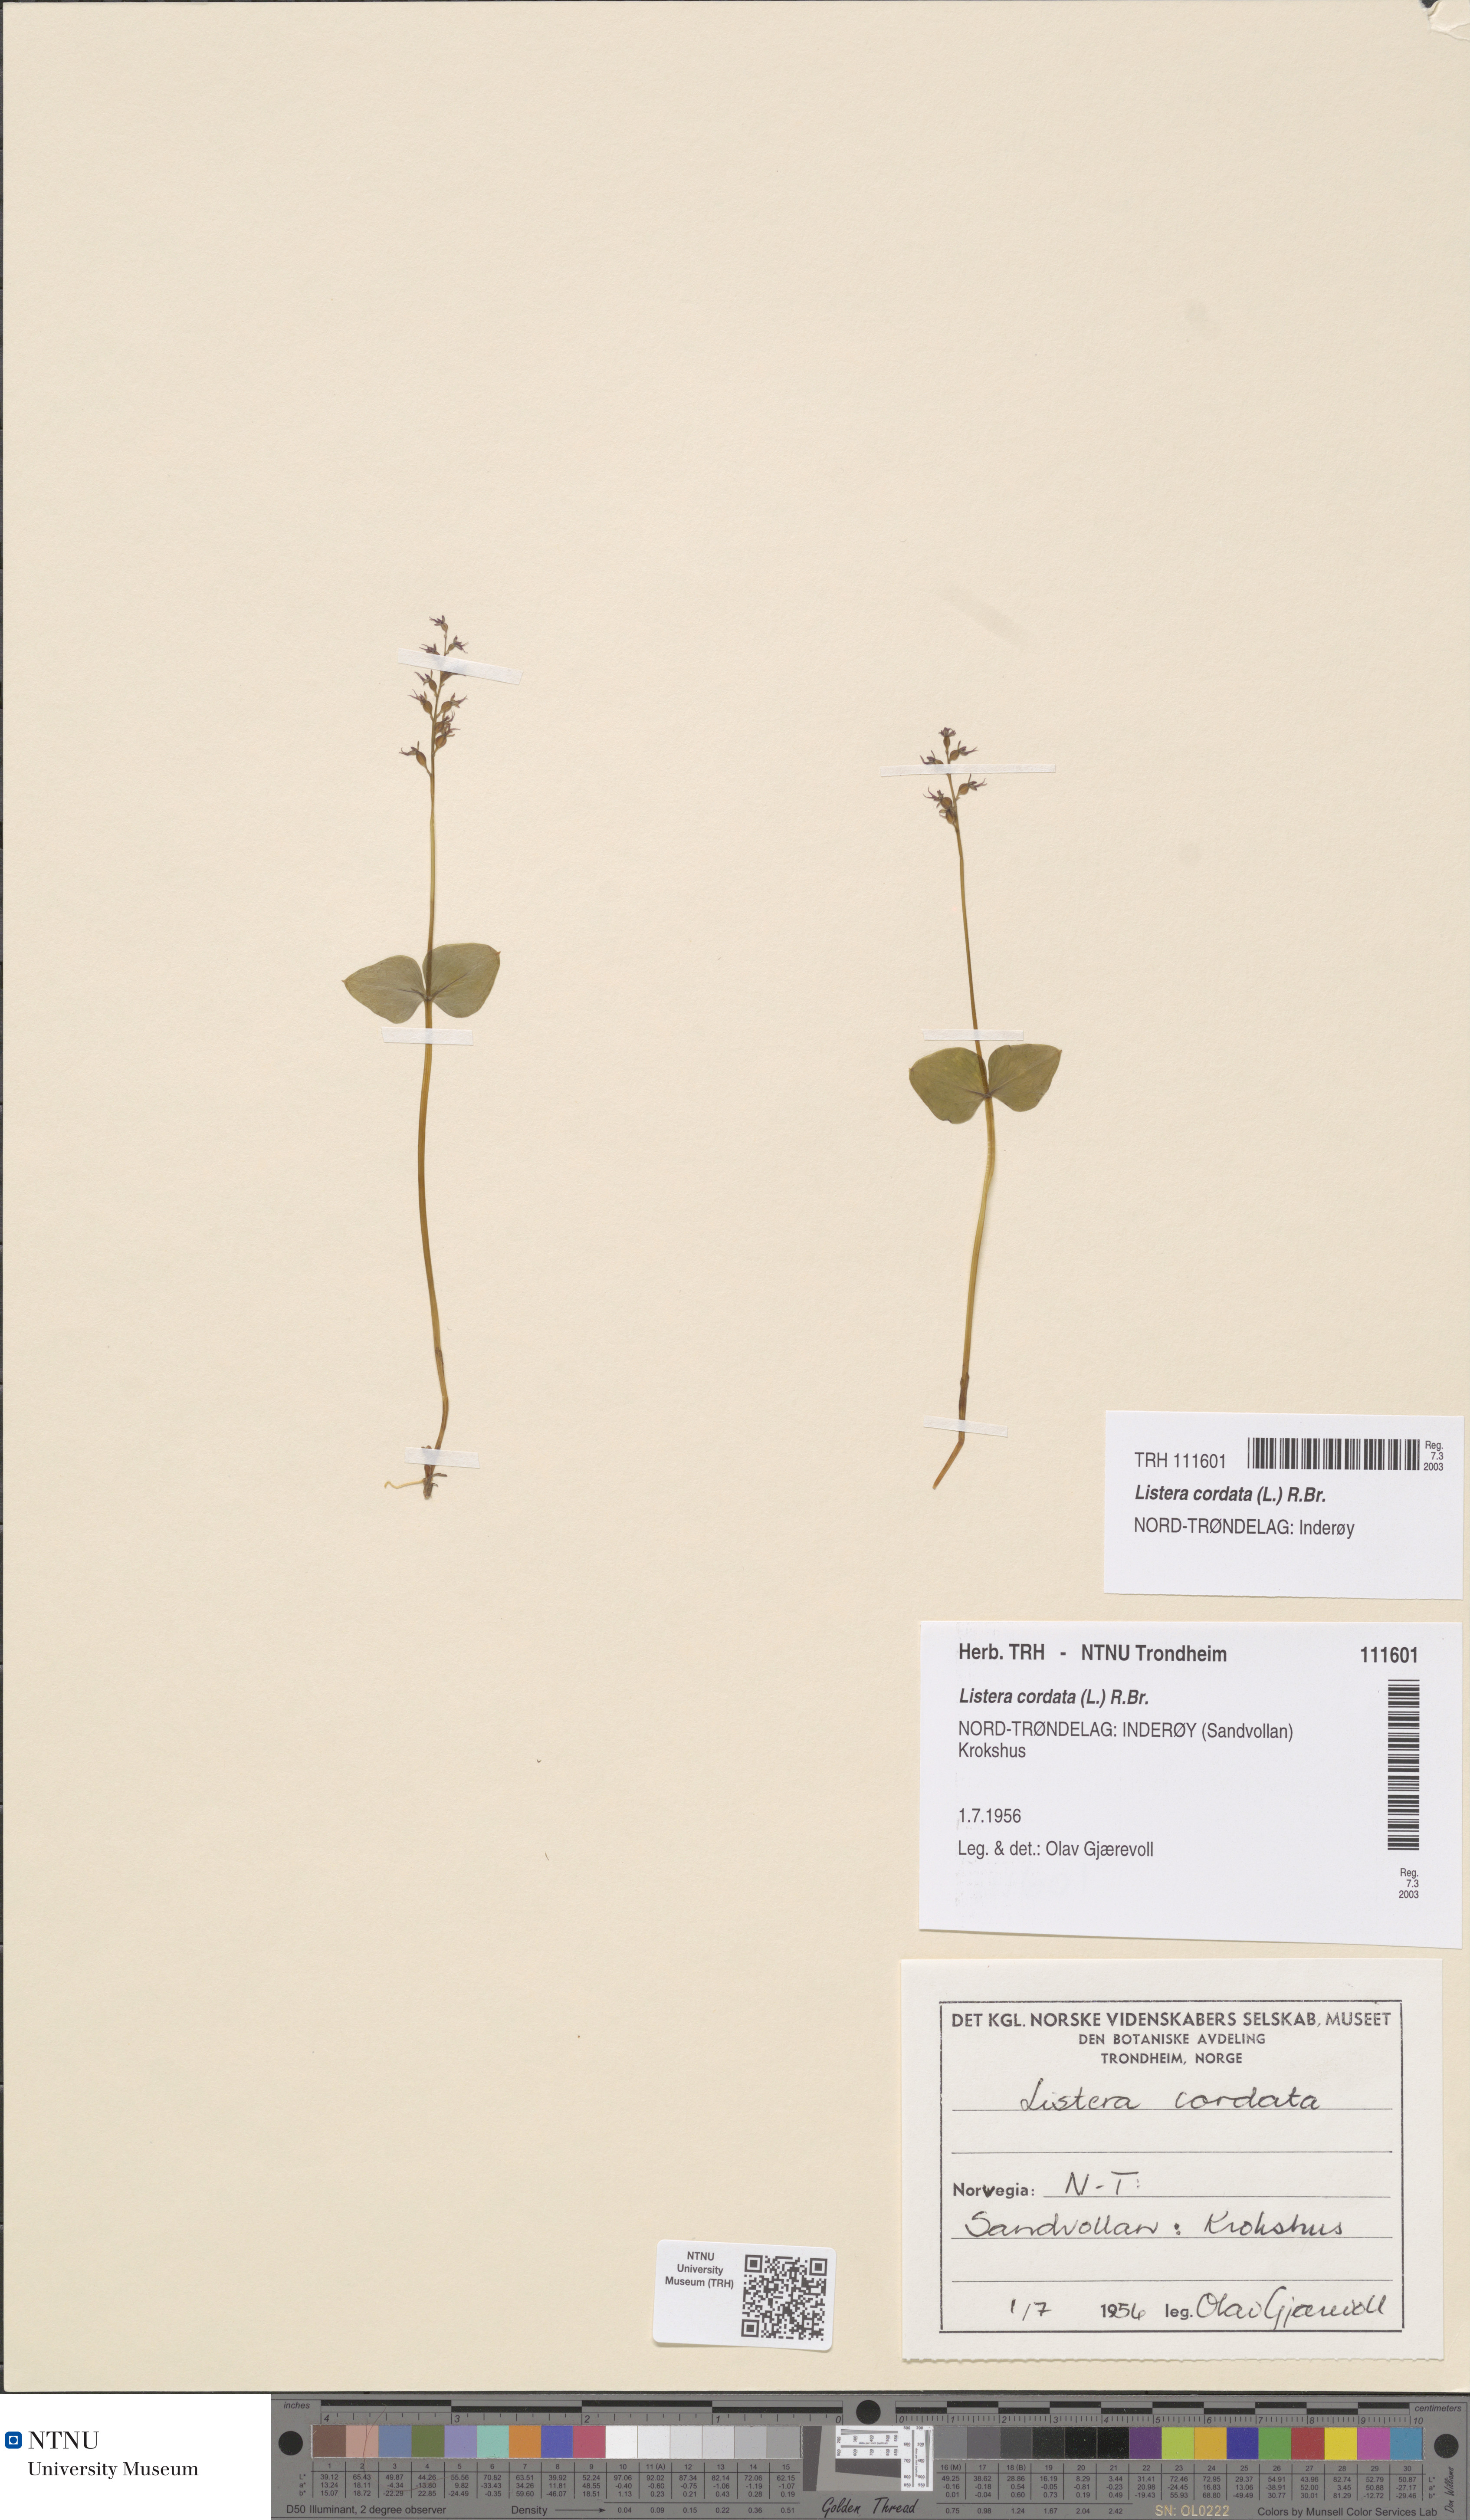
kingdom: Plantae
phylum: Tracheophyta
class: Liliopsida
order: Asparagales
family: Orchidaceae
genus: Neottia
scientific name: Neottia cordata
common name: Lesser twayblade
